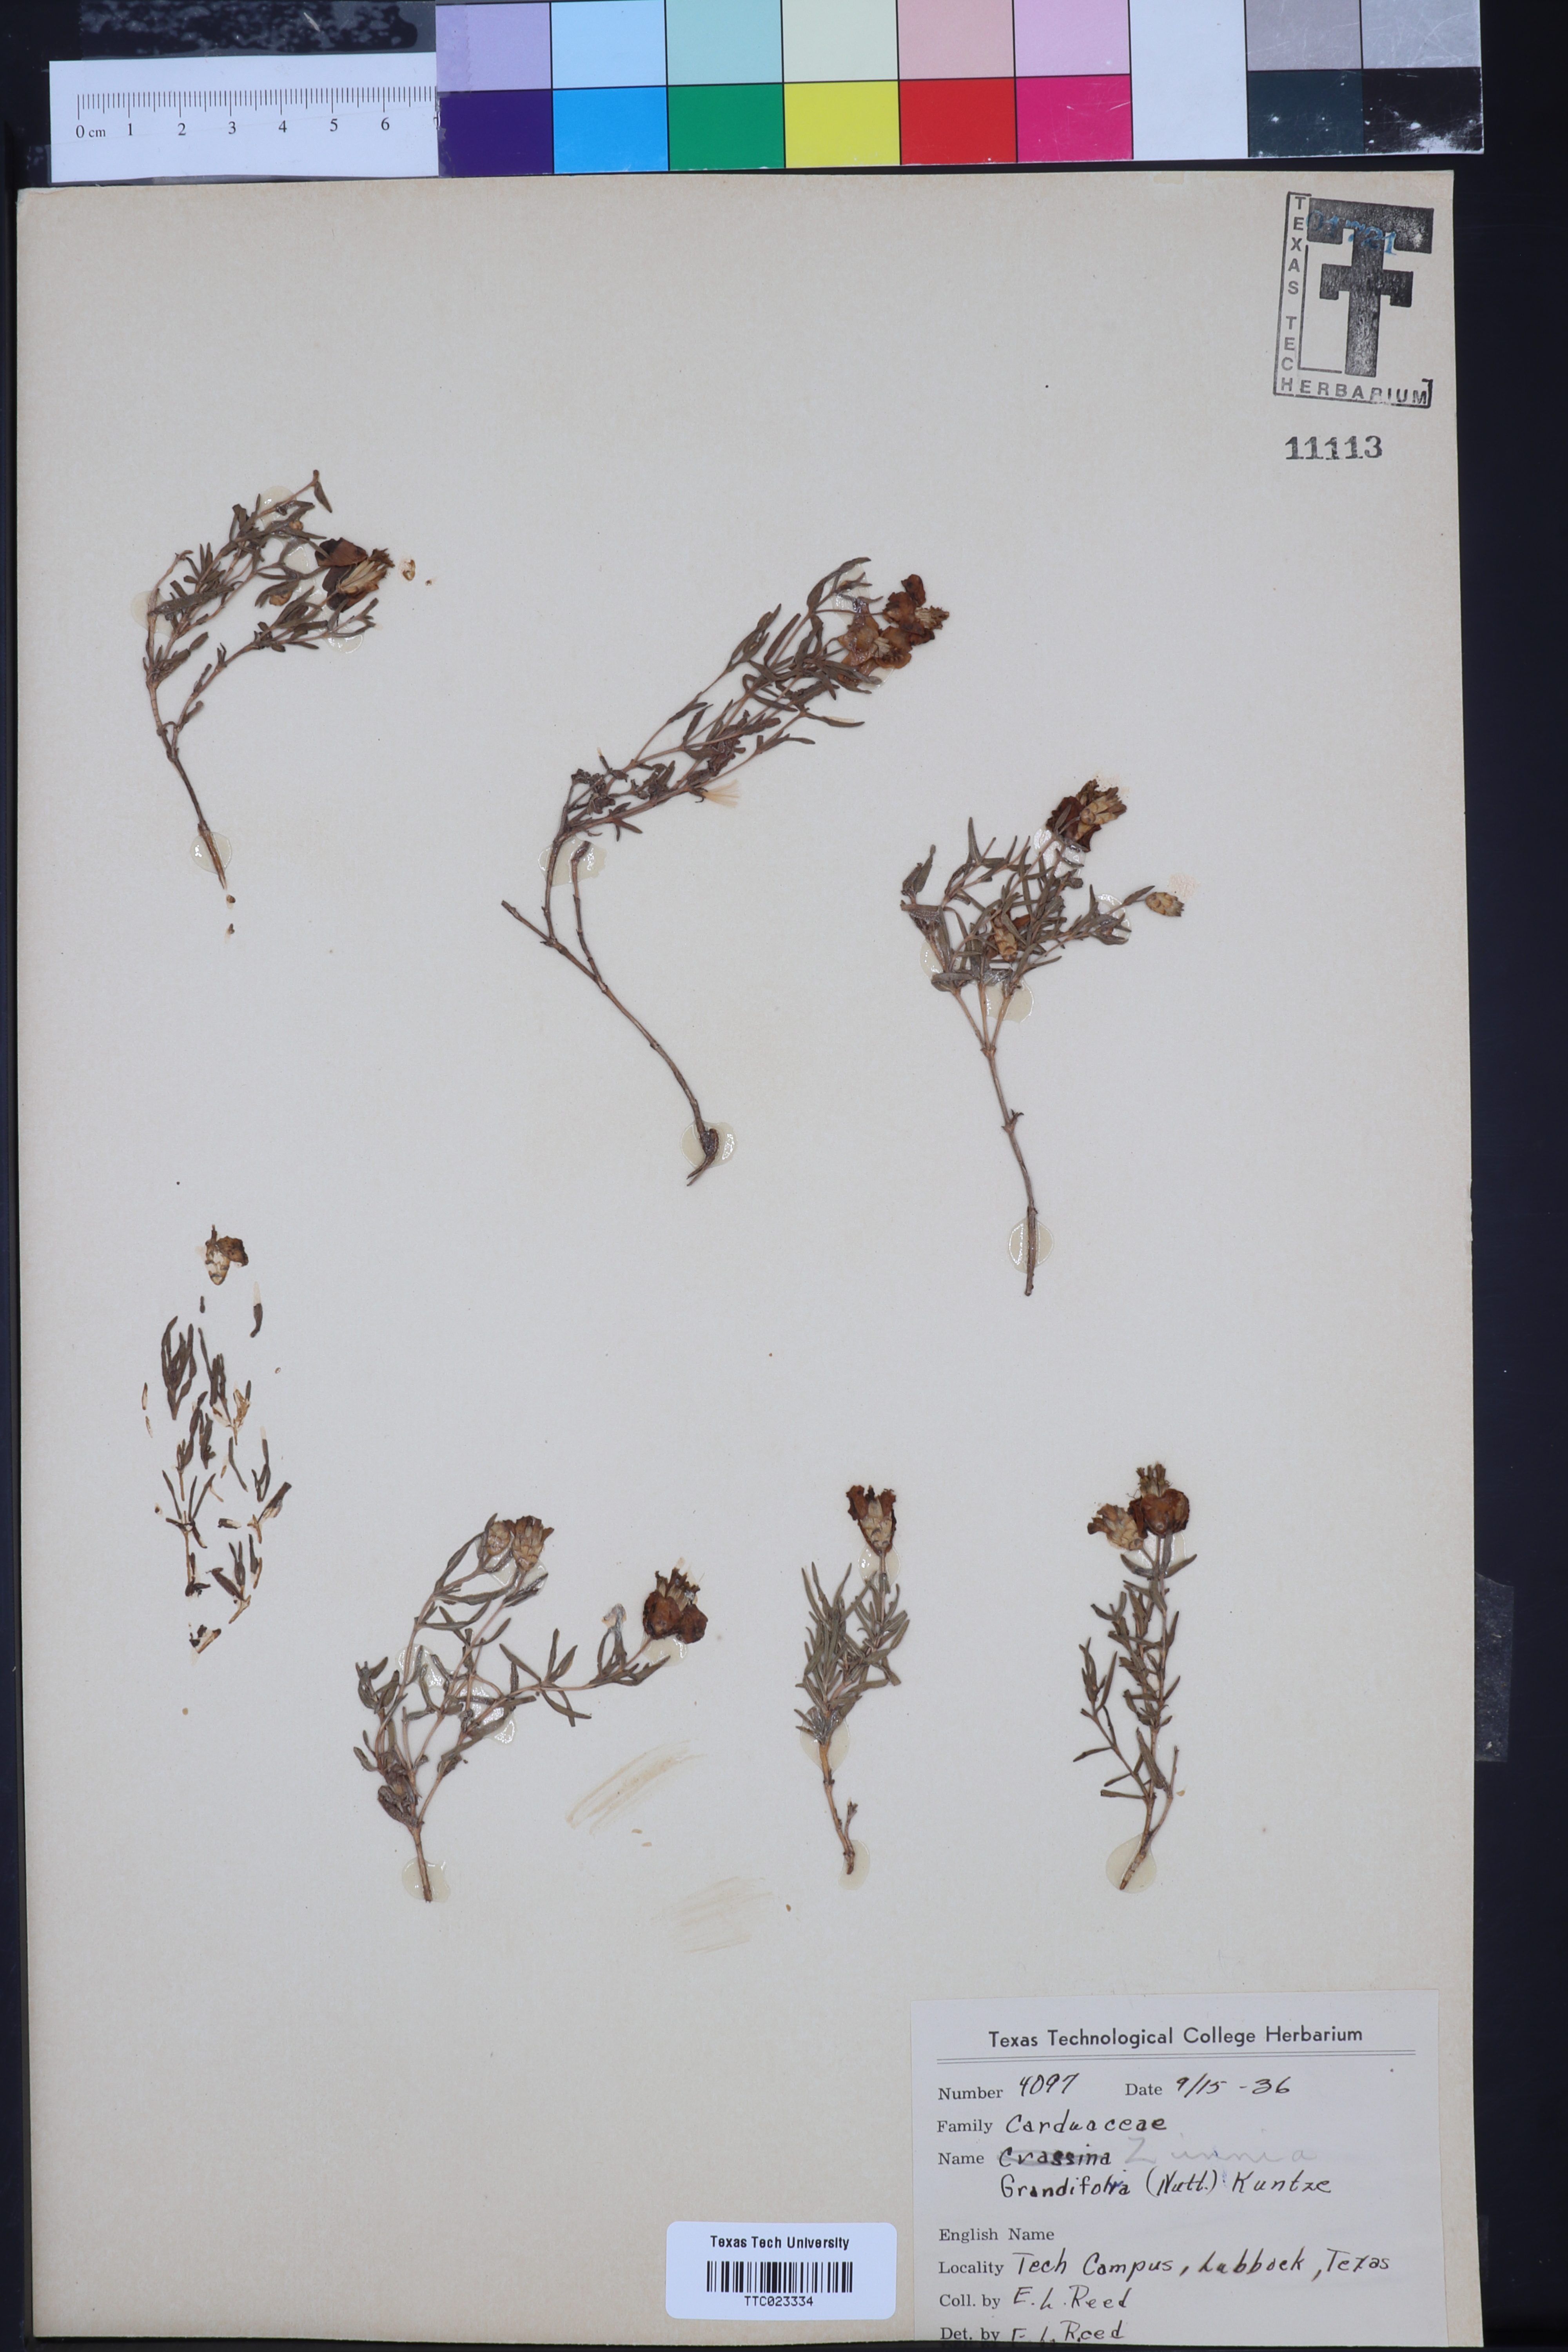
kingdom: Plantae
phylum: Tracheophyta
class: Magnoliopsida
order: Asterales
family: Asteraceae
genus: Zinnia
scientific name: Zinnia grandiflora
